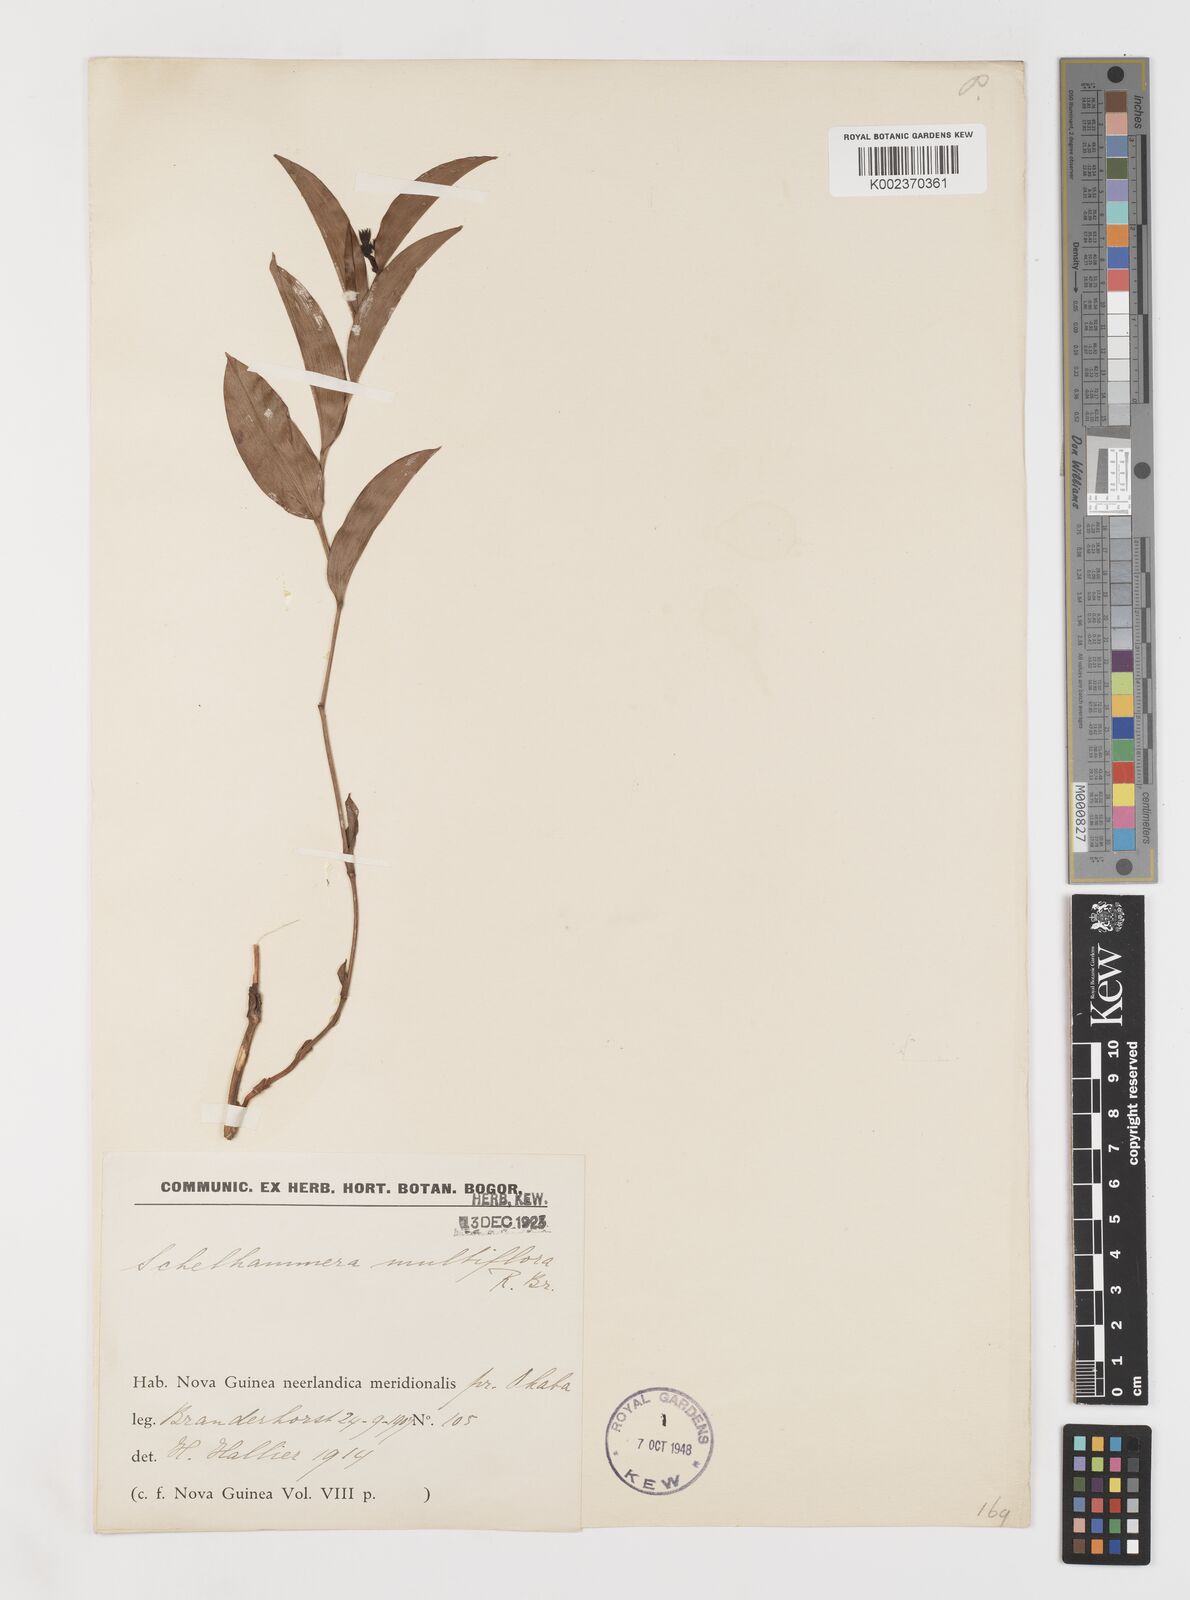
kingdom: Plantae
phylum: Tracheophyta
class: Liliopsida
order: Liliales
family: Colchicaceae
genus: Schelhammera
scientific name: Schelhammera multiflora
